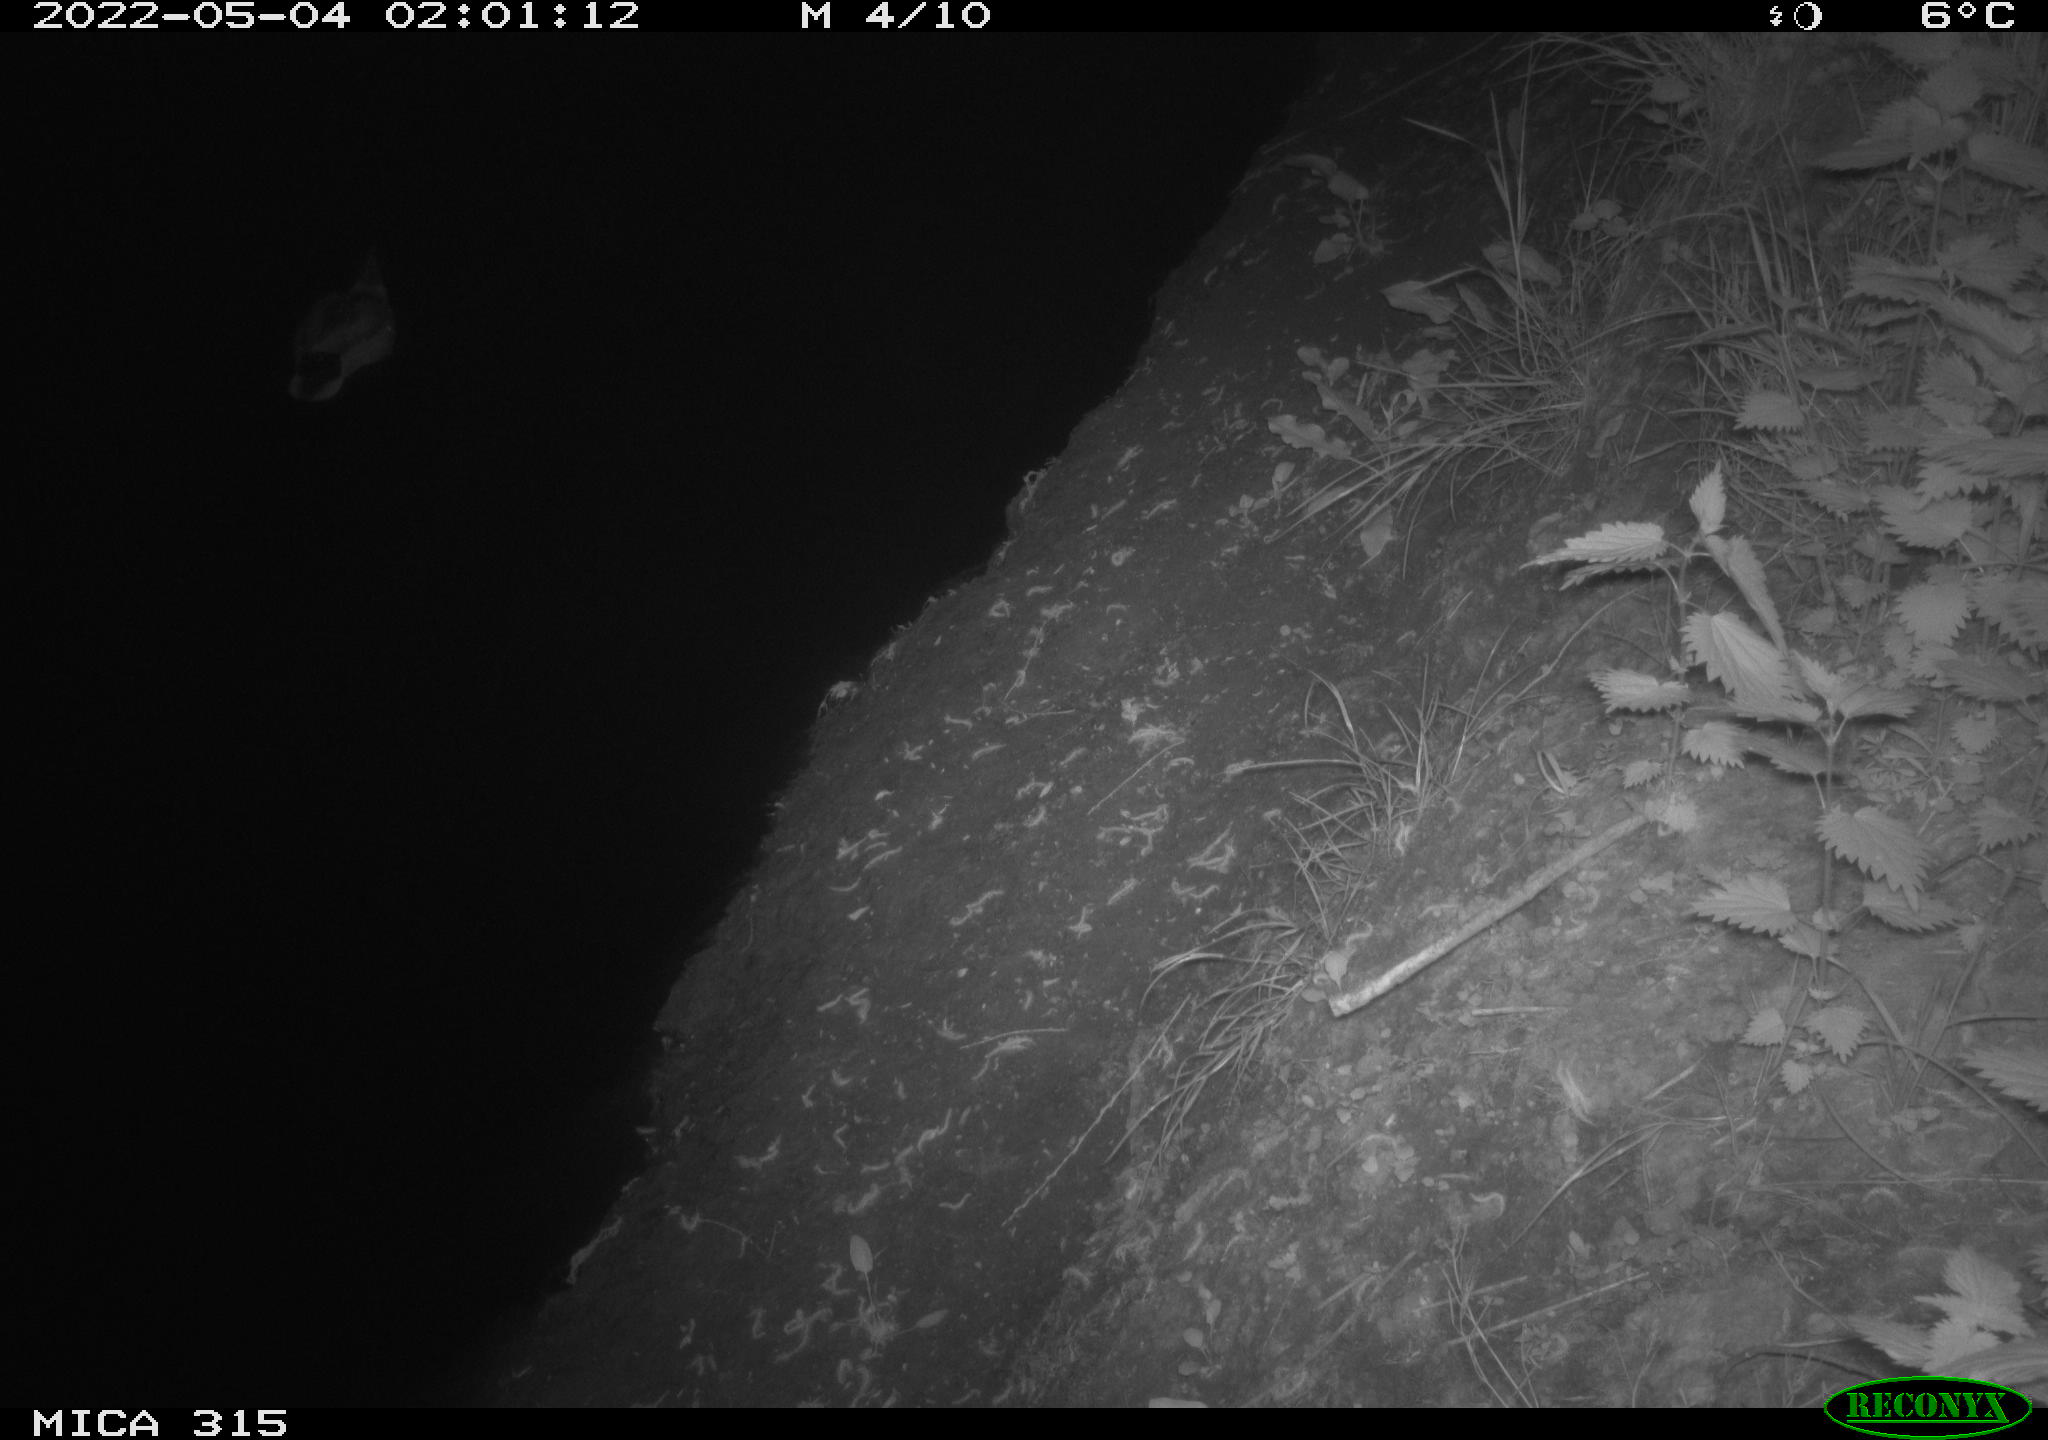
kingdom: Animalia
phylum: Chordata
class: Aves
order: Anseriformes
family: Anatidae
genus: Anas
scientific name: Anas platyrhynchos
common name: Mallard
